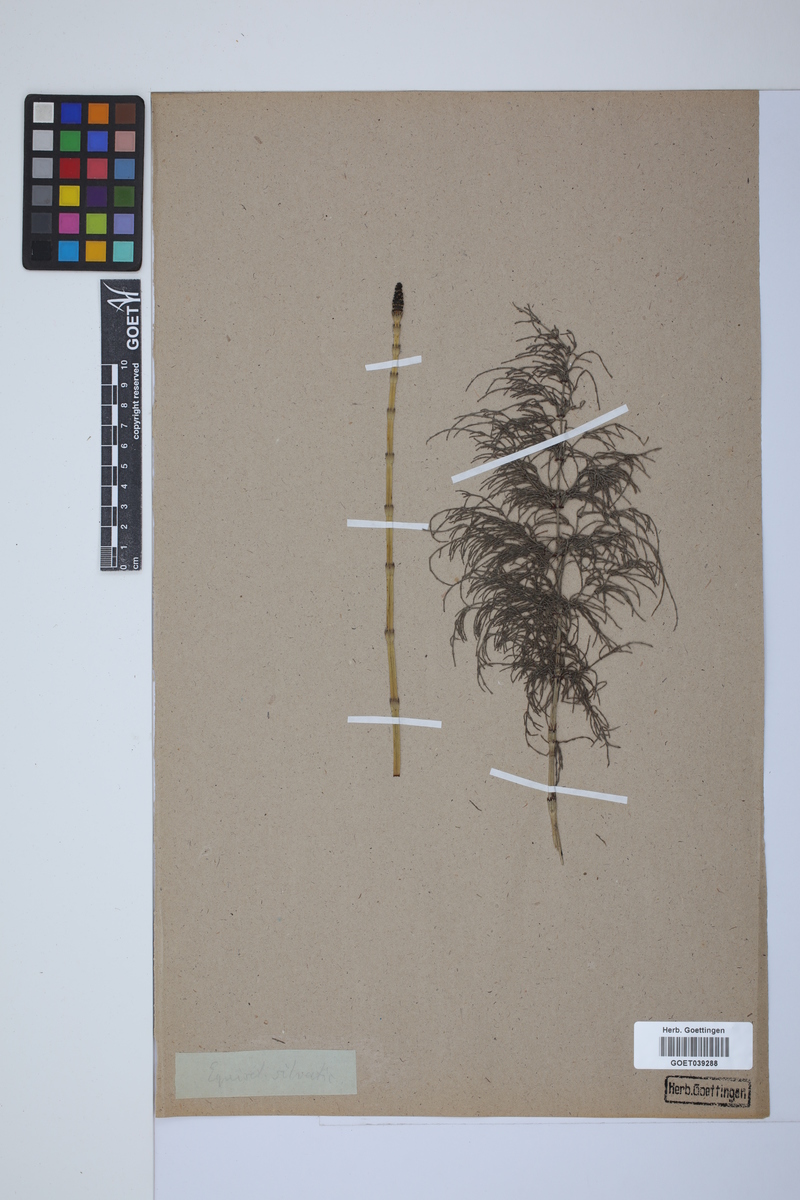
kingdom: Plantae
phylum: Tracheophyta
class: Polypodiopsida
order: Equisetales
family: Equisetaceae
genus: Equisetum
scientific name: Equisetum sylvaticum
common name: Wood horsetail
